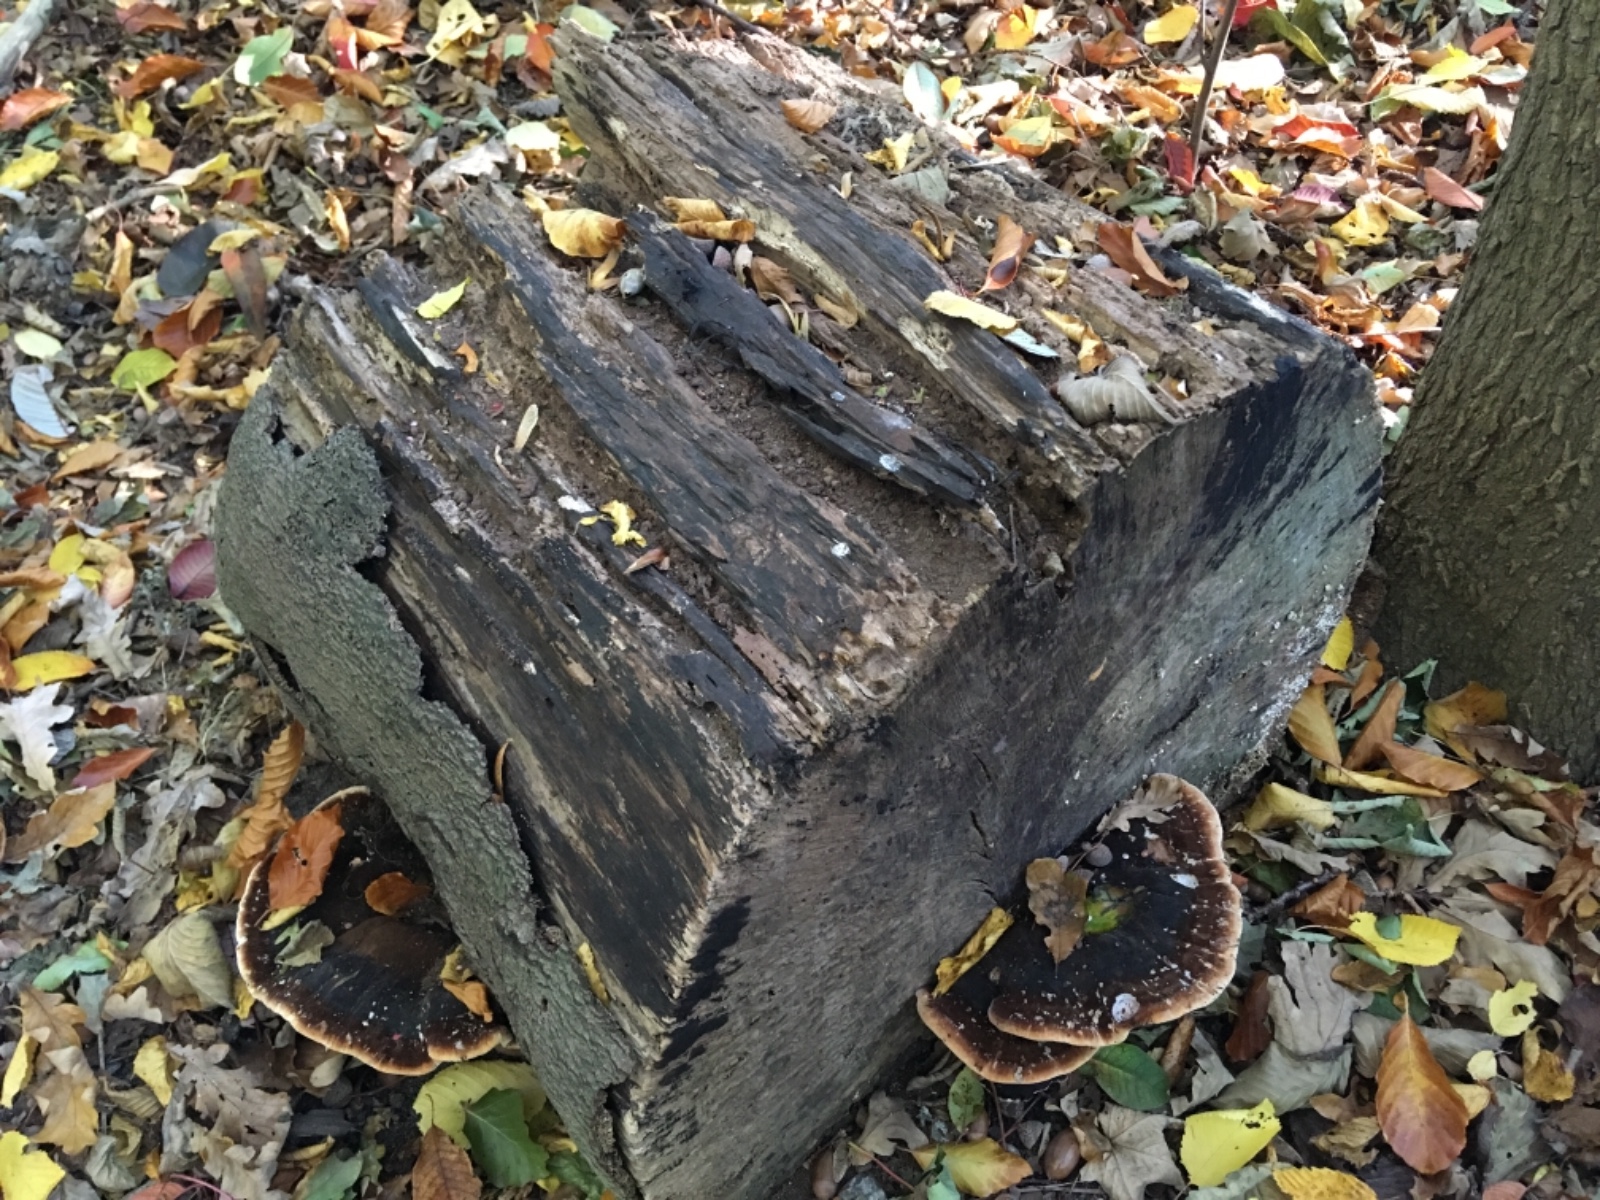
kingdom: Fungi
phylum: Basidiomycota
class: Agaricomycetes
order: Polyporales
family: Ischnodermataceae
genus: Ischnoderma
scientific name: Ischnoderma resinosum
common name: løv-tjæreporesvamp
